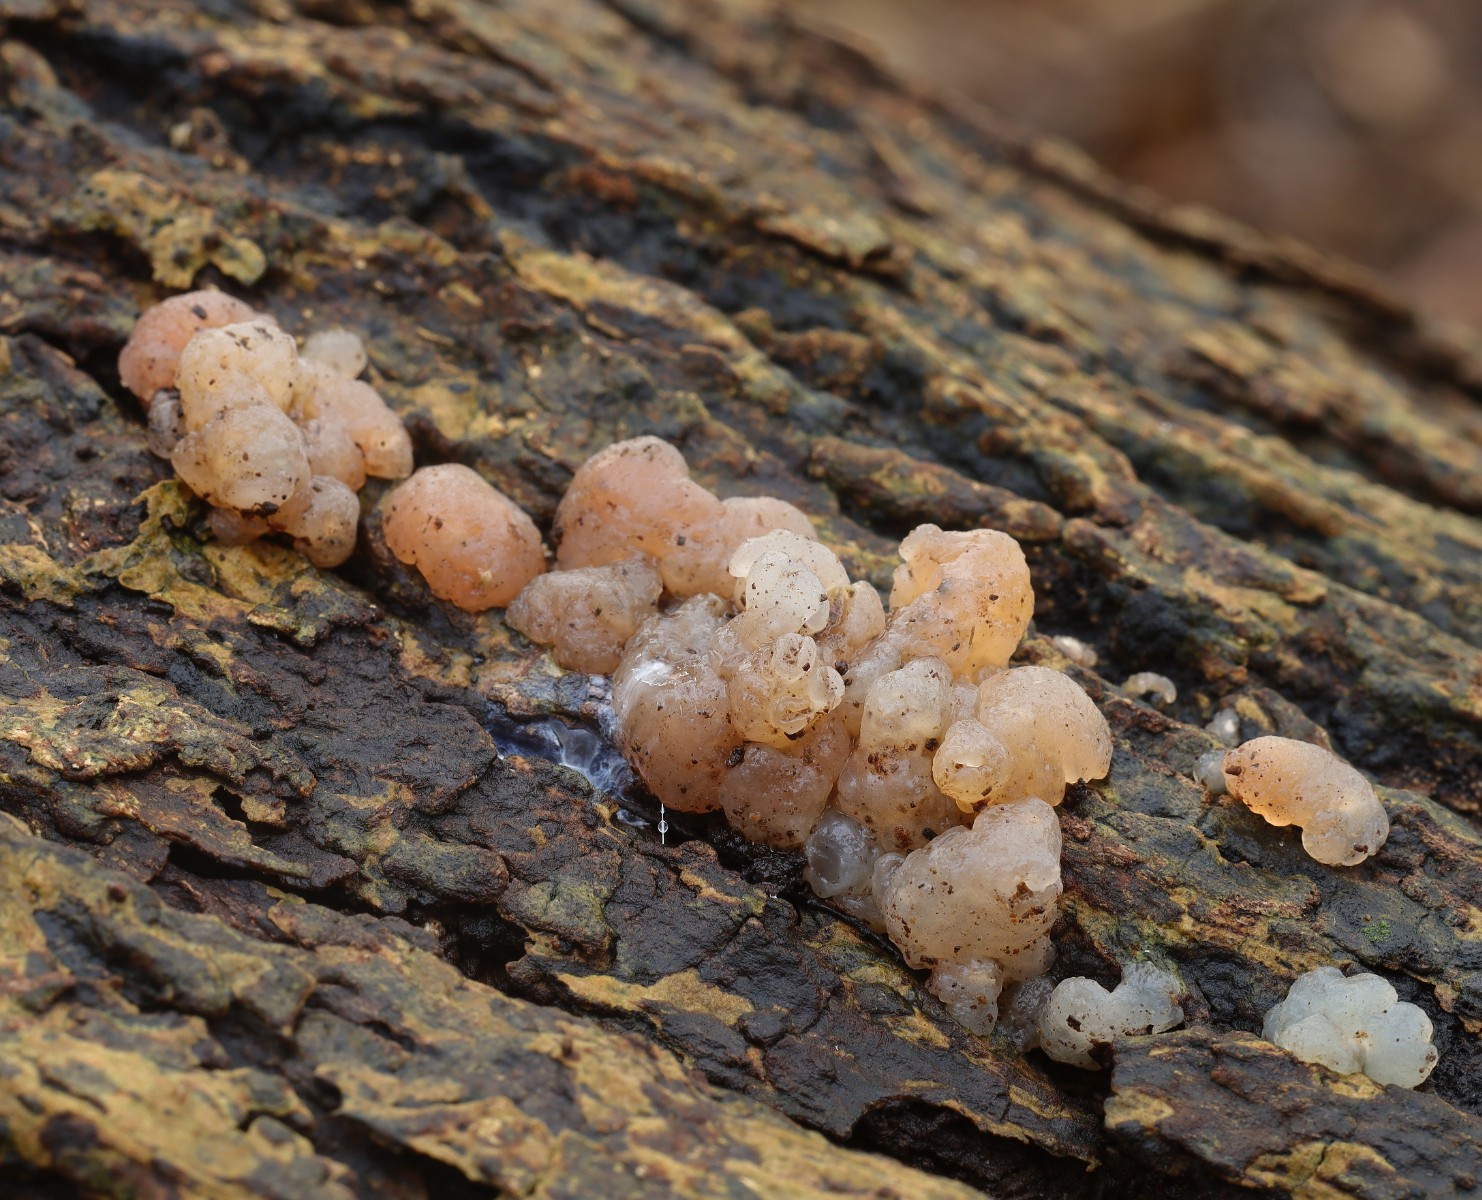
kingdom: Fungi
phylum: Basidiomycota
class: Agaricomycetes
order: Auriculariales
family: Hyaloriaceae
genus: Myxarium
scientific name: Myxarium hyalinum
